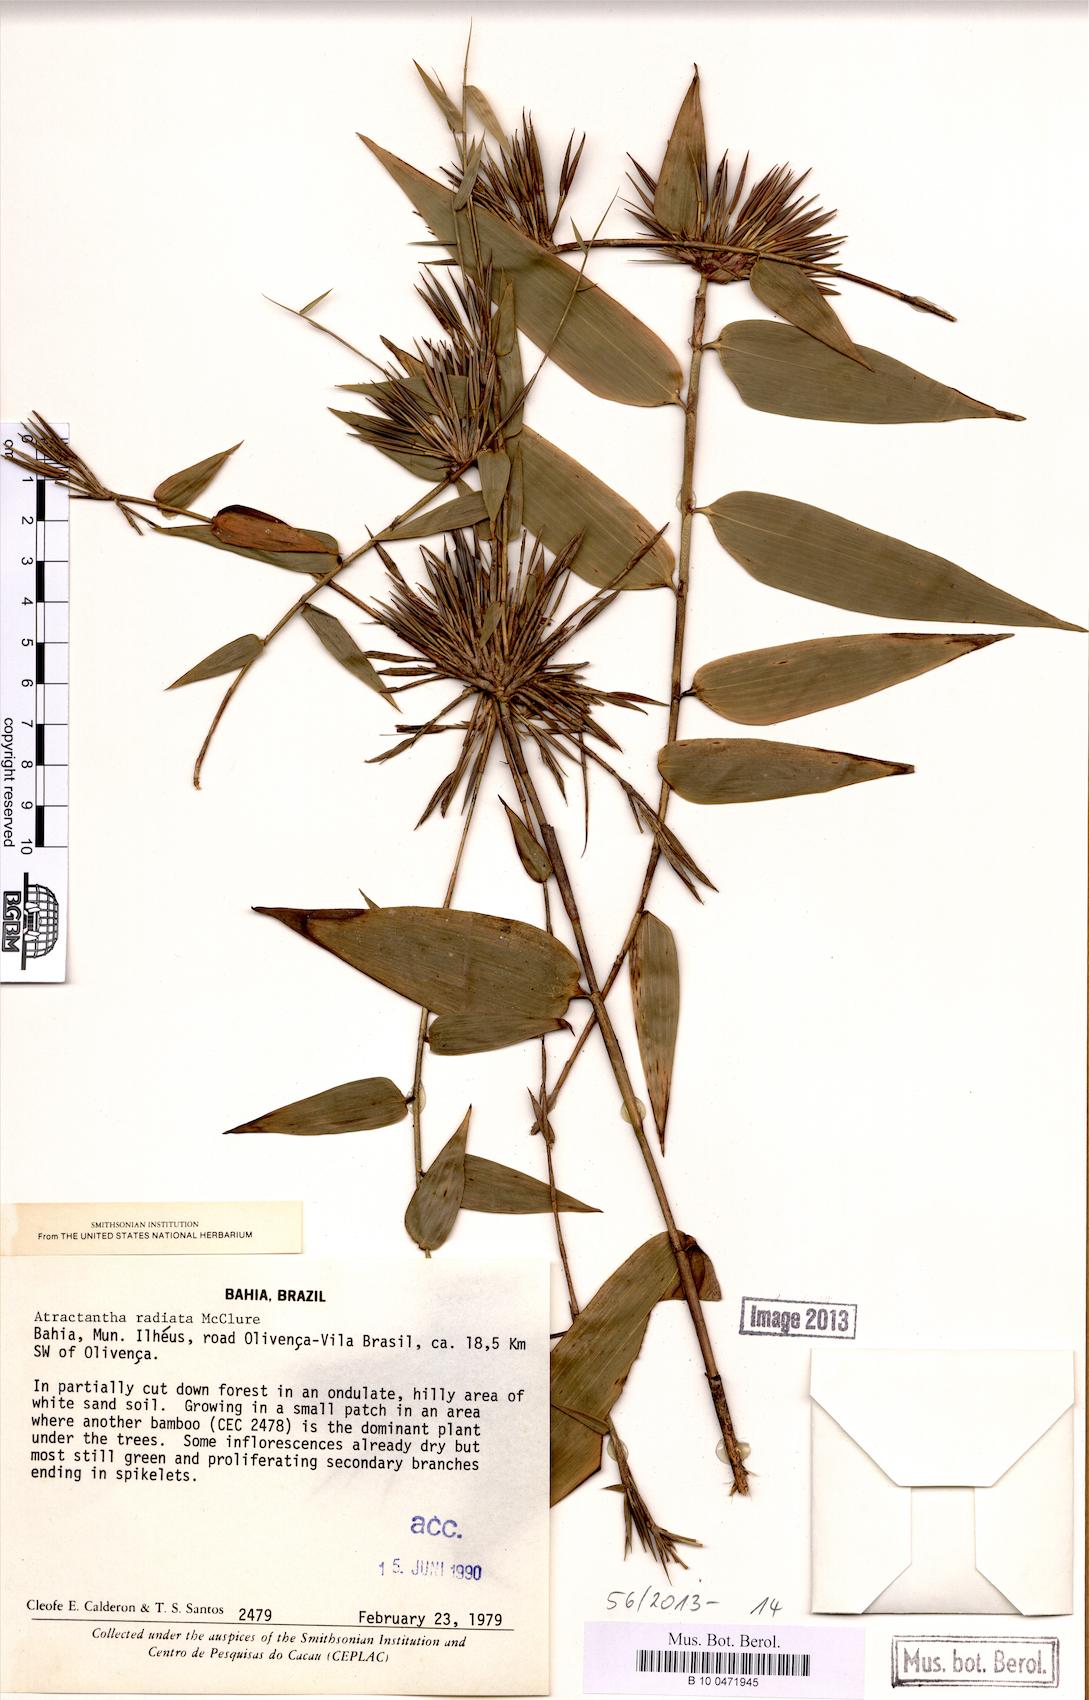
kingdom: Plantae
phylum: Tracheophyta
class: Liliopsida
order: Poales
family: Poaceae
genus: Atractantha
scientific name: Atractantha radiata
